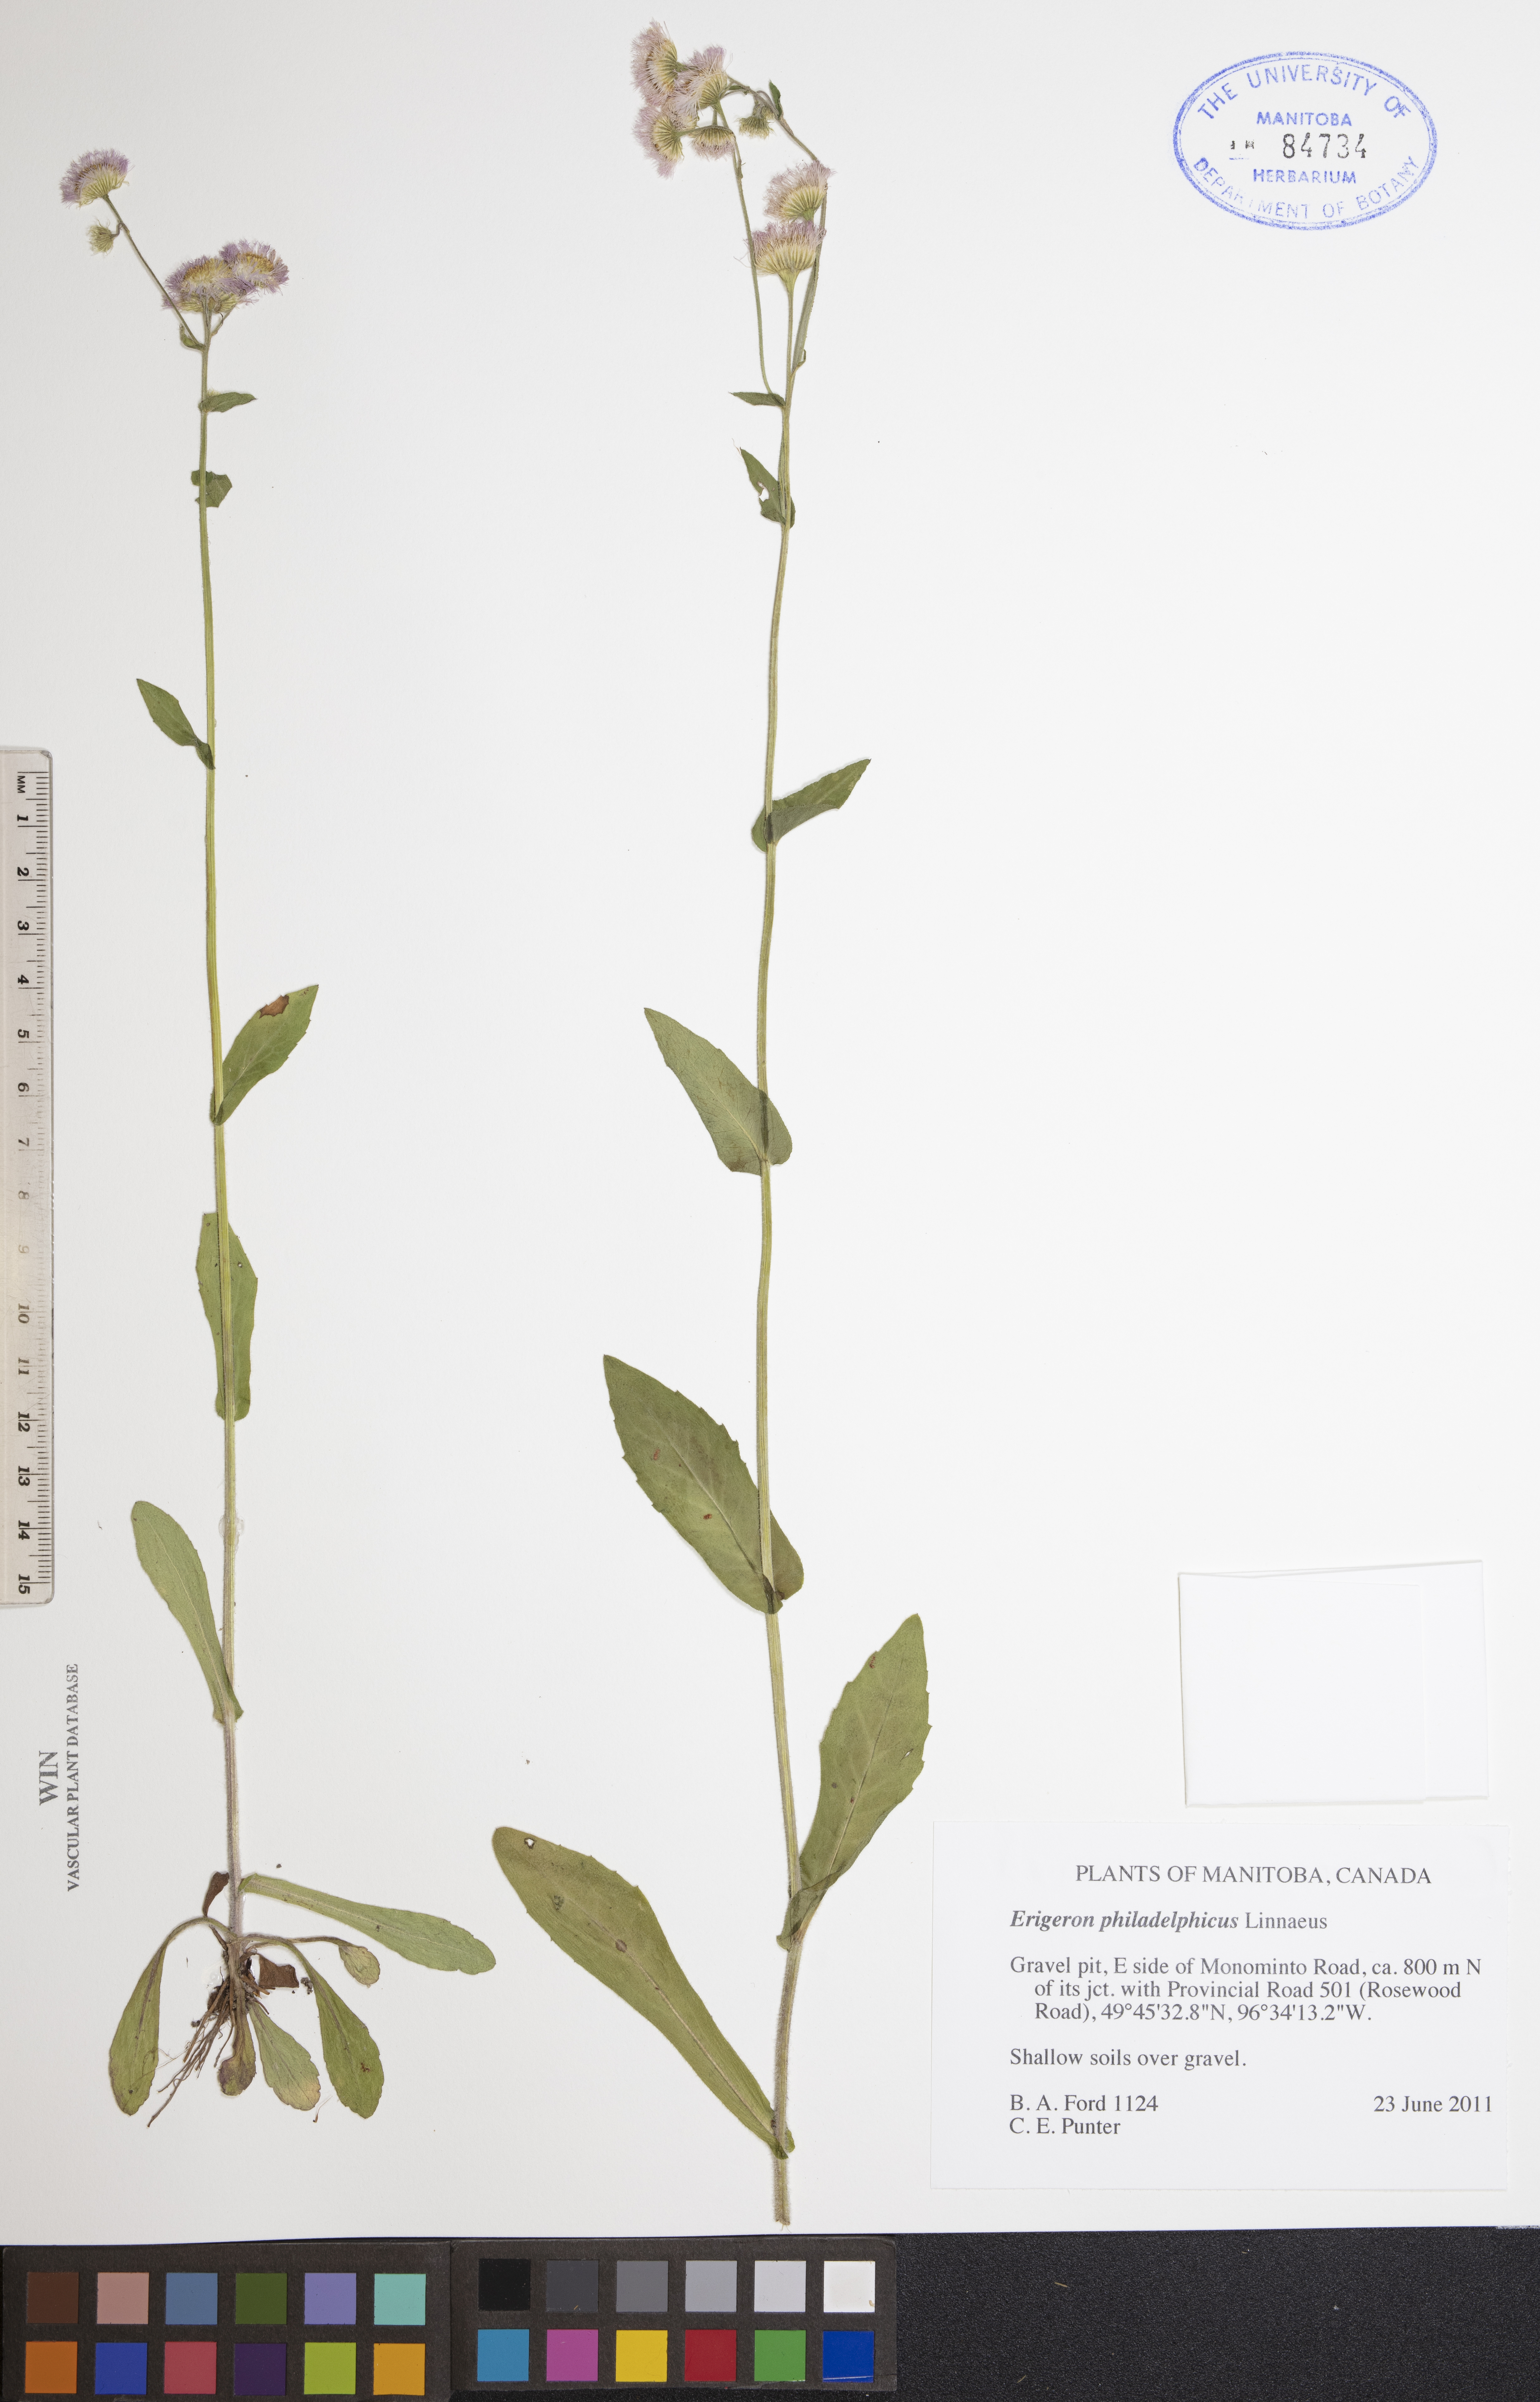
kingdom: Plantae
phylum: Tracheophyta
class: Magnoliopsida
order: Asterales
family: Asteraceae
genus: Erigeron
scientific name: Erigeron philadelphicus
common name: Robin's-plantain
